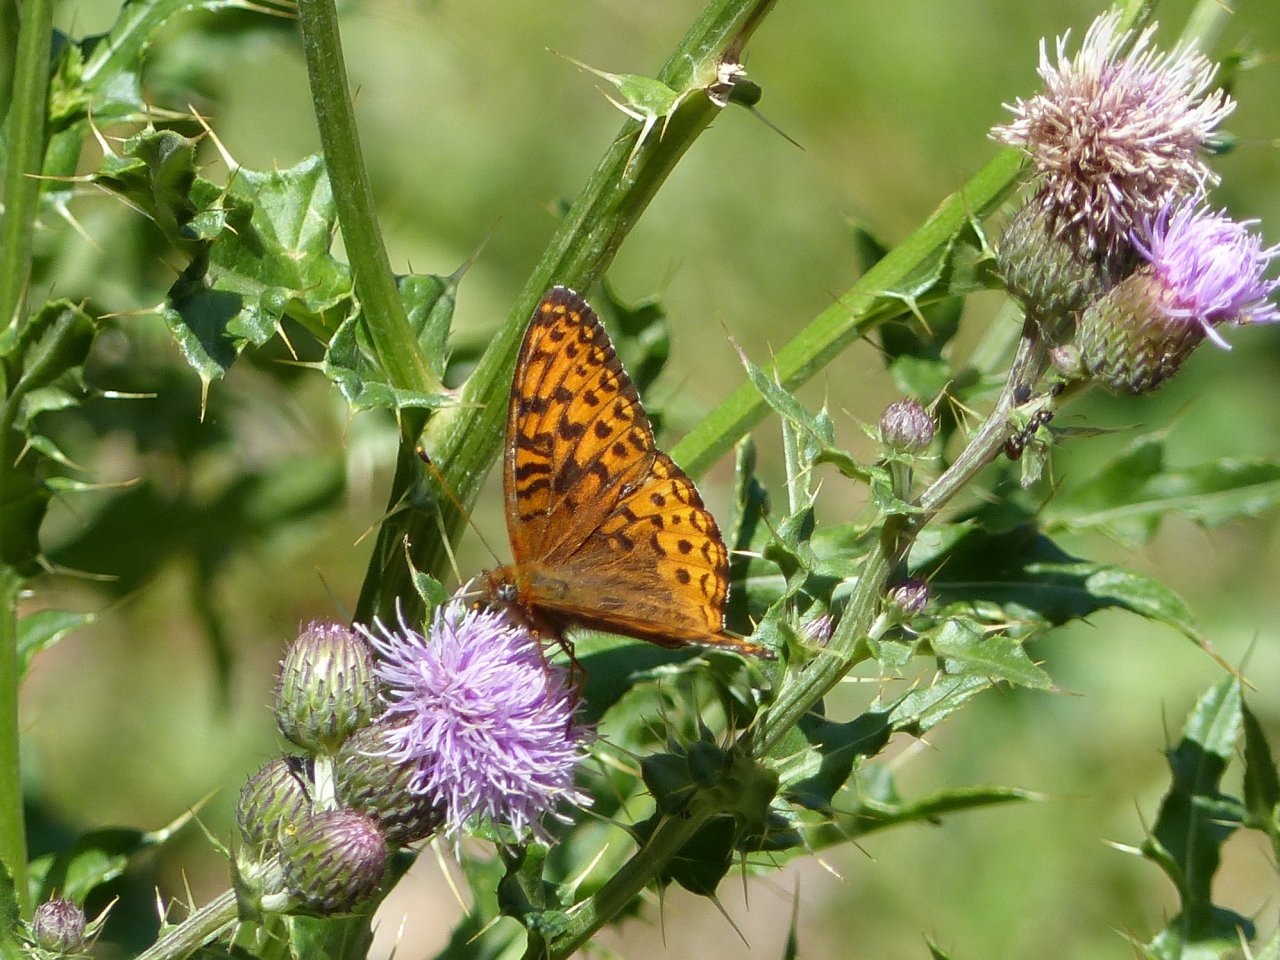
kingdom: Animalia
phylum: Arthropoda
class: Insecta
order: Lepidoptera
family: Nymphalidae
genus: Speyeria
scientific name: Speyeria zerene
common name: Zerene Fritillary
